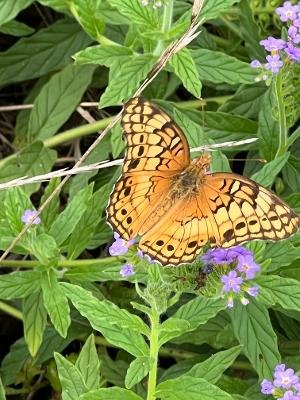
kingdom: Animalia
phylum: Arthropoda
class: Insecta
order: Lepidoptera
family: Nymphalidae
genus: Euptoieta
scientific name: Euptoieta claudia
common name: Variegated Fritillary
